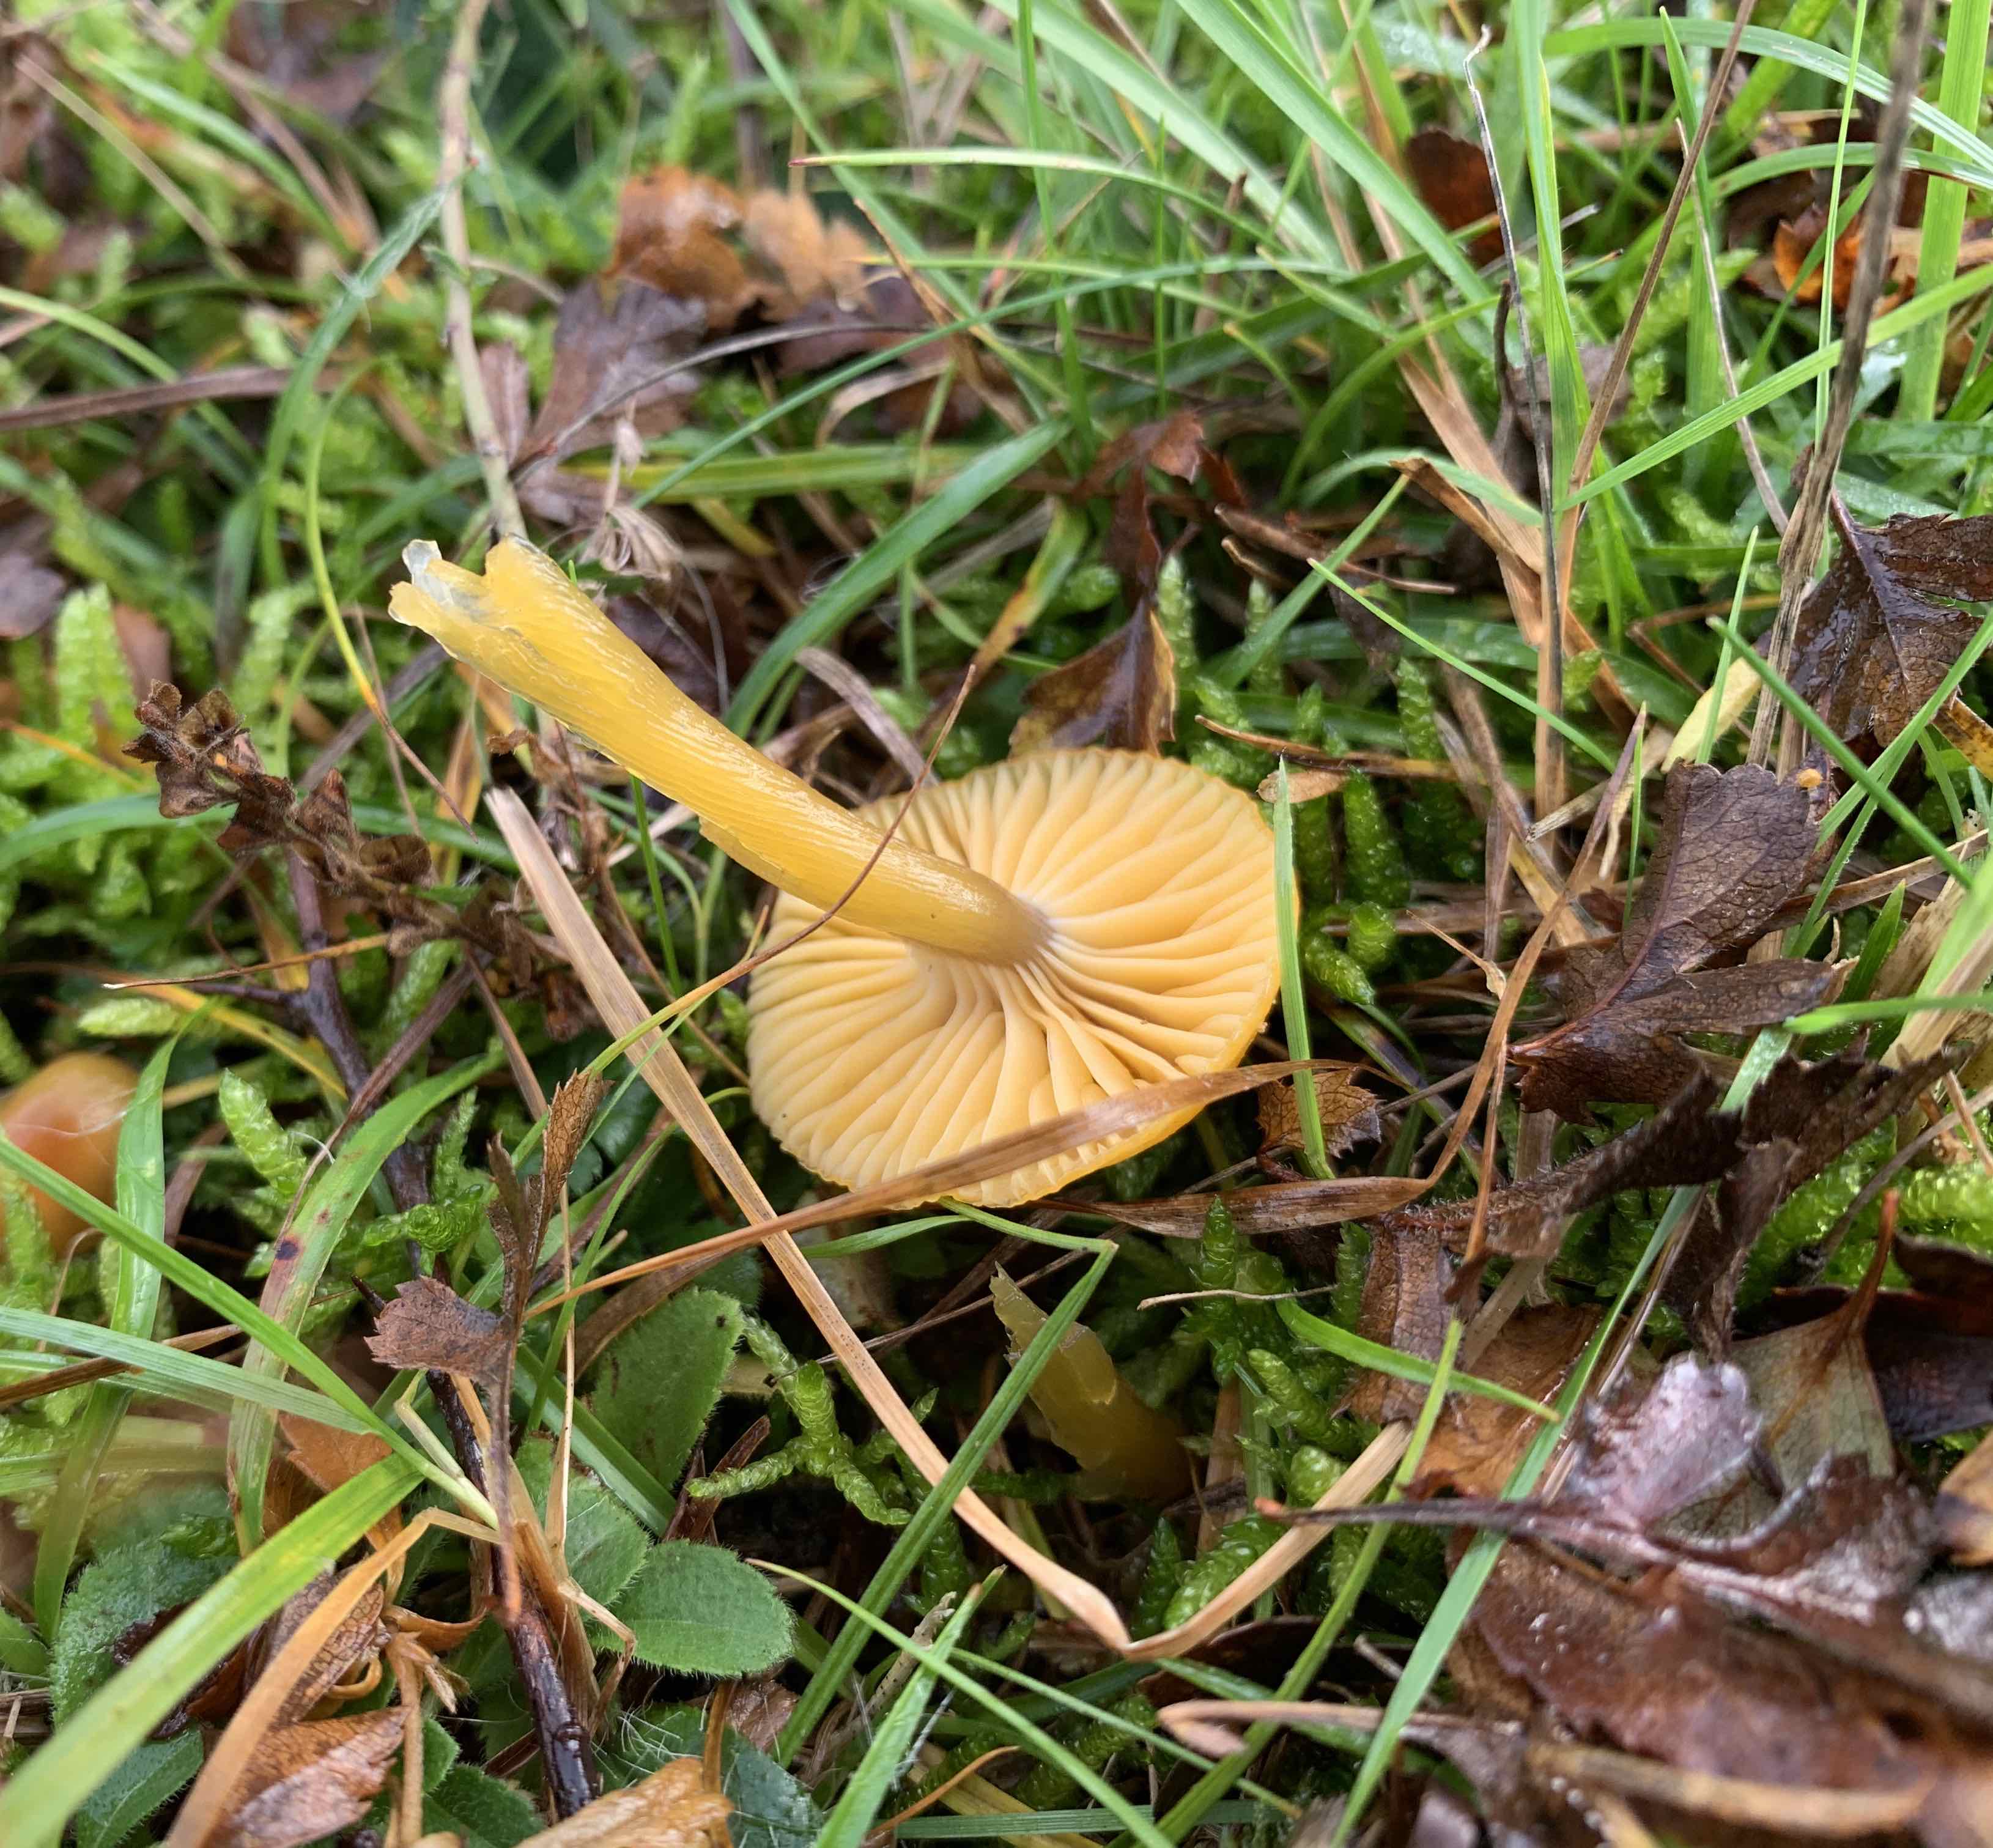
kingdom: Fungi
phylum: Basidiomycota
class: Agaricomycetes
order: Agaricales
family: Hygrophoraceae
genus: Gliophorus
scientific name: Gliophorus laetus
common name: brusk-vokshat
